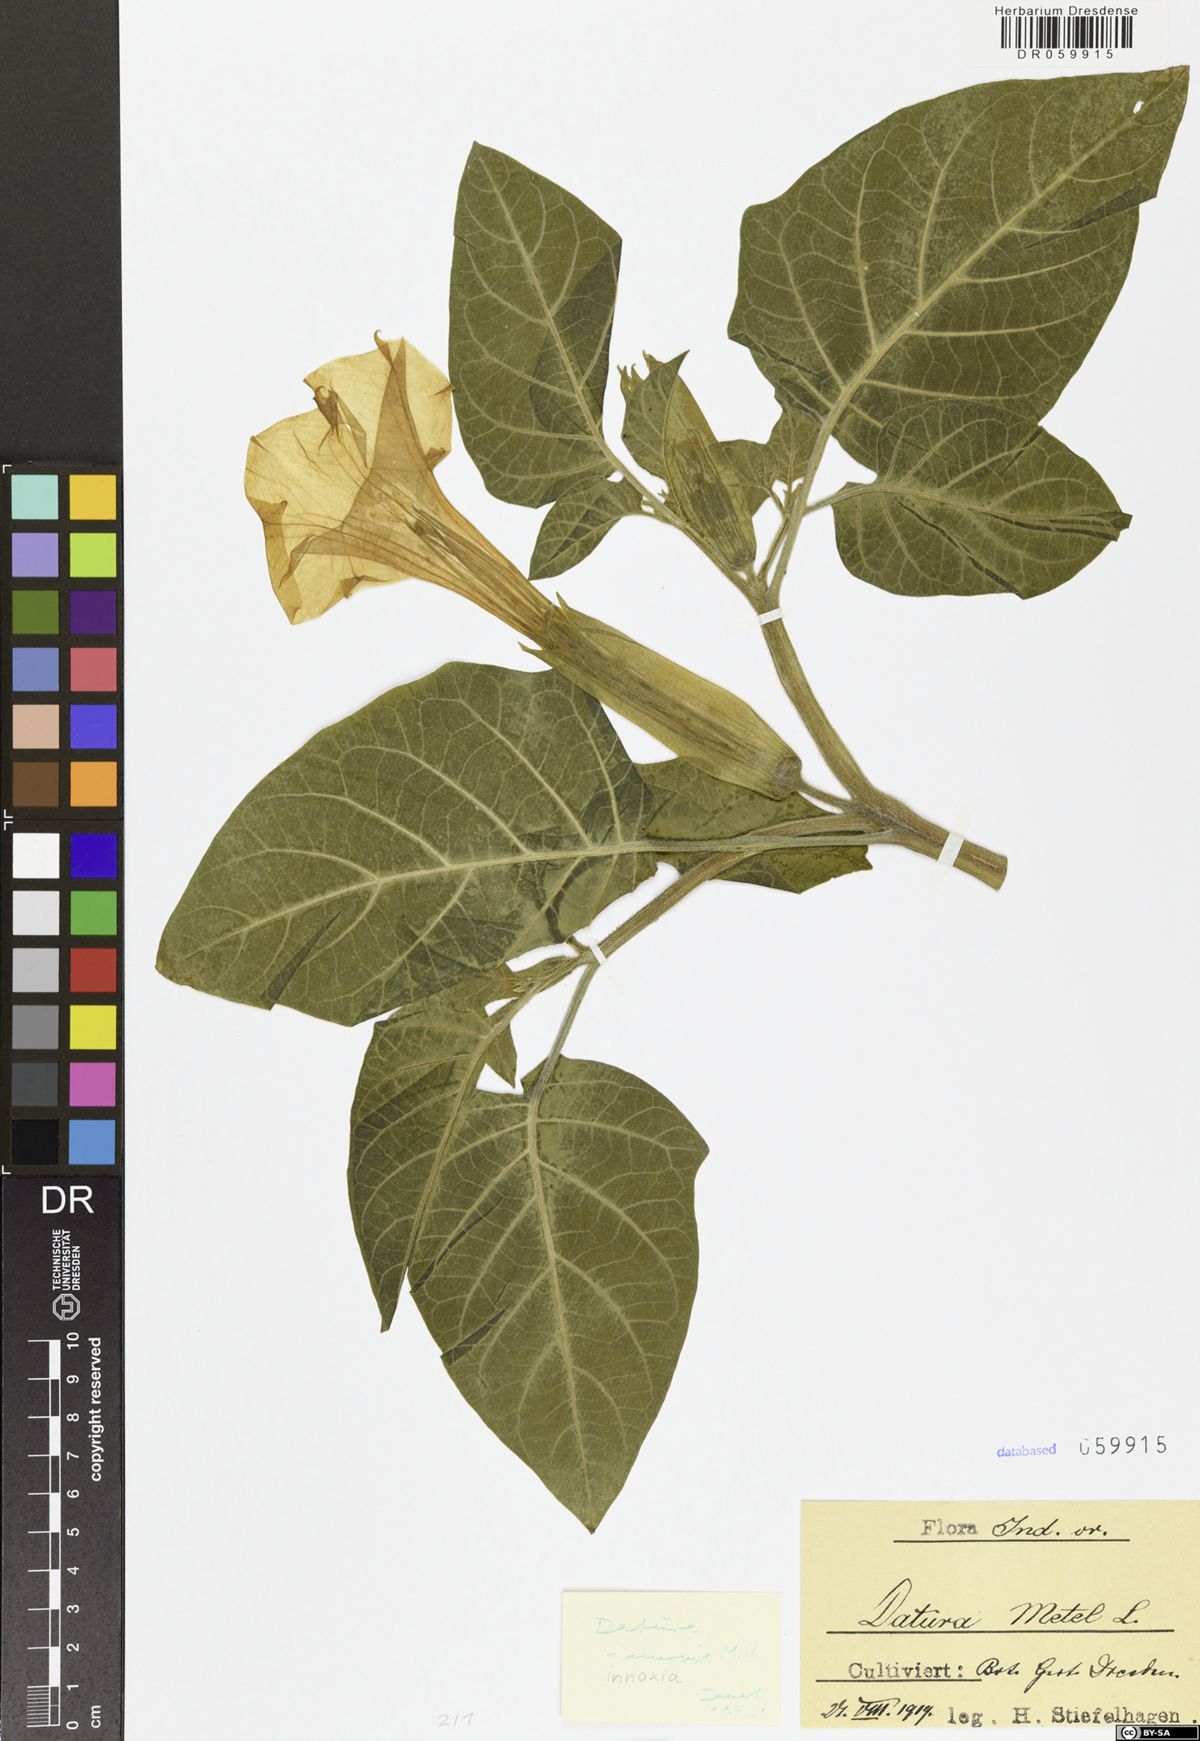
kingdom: Plantae
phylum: Tracheophyta
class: Magnoliopsida
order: Solanales
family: Solanaceae
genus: Datura
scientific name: Datura innoxia
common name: Downy thorn-apple
